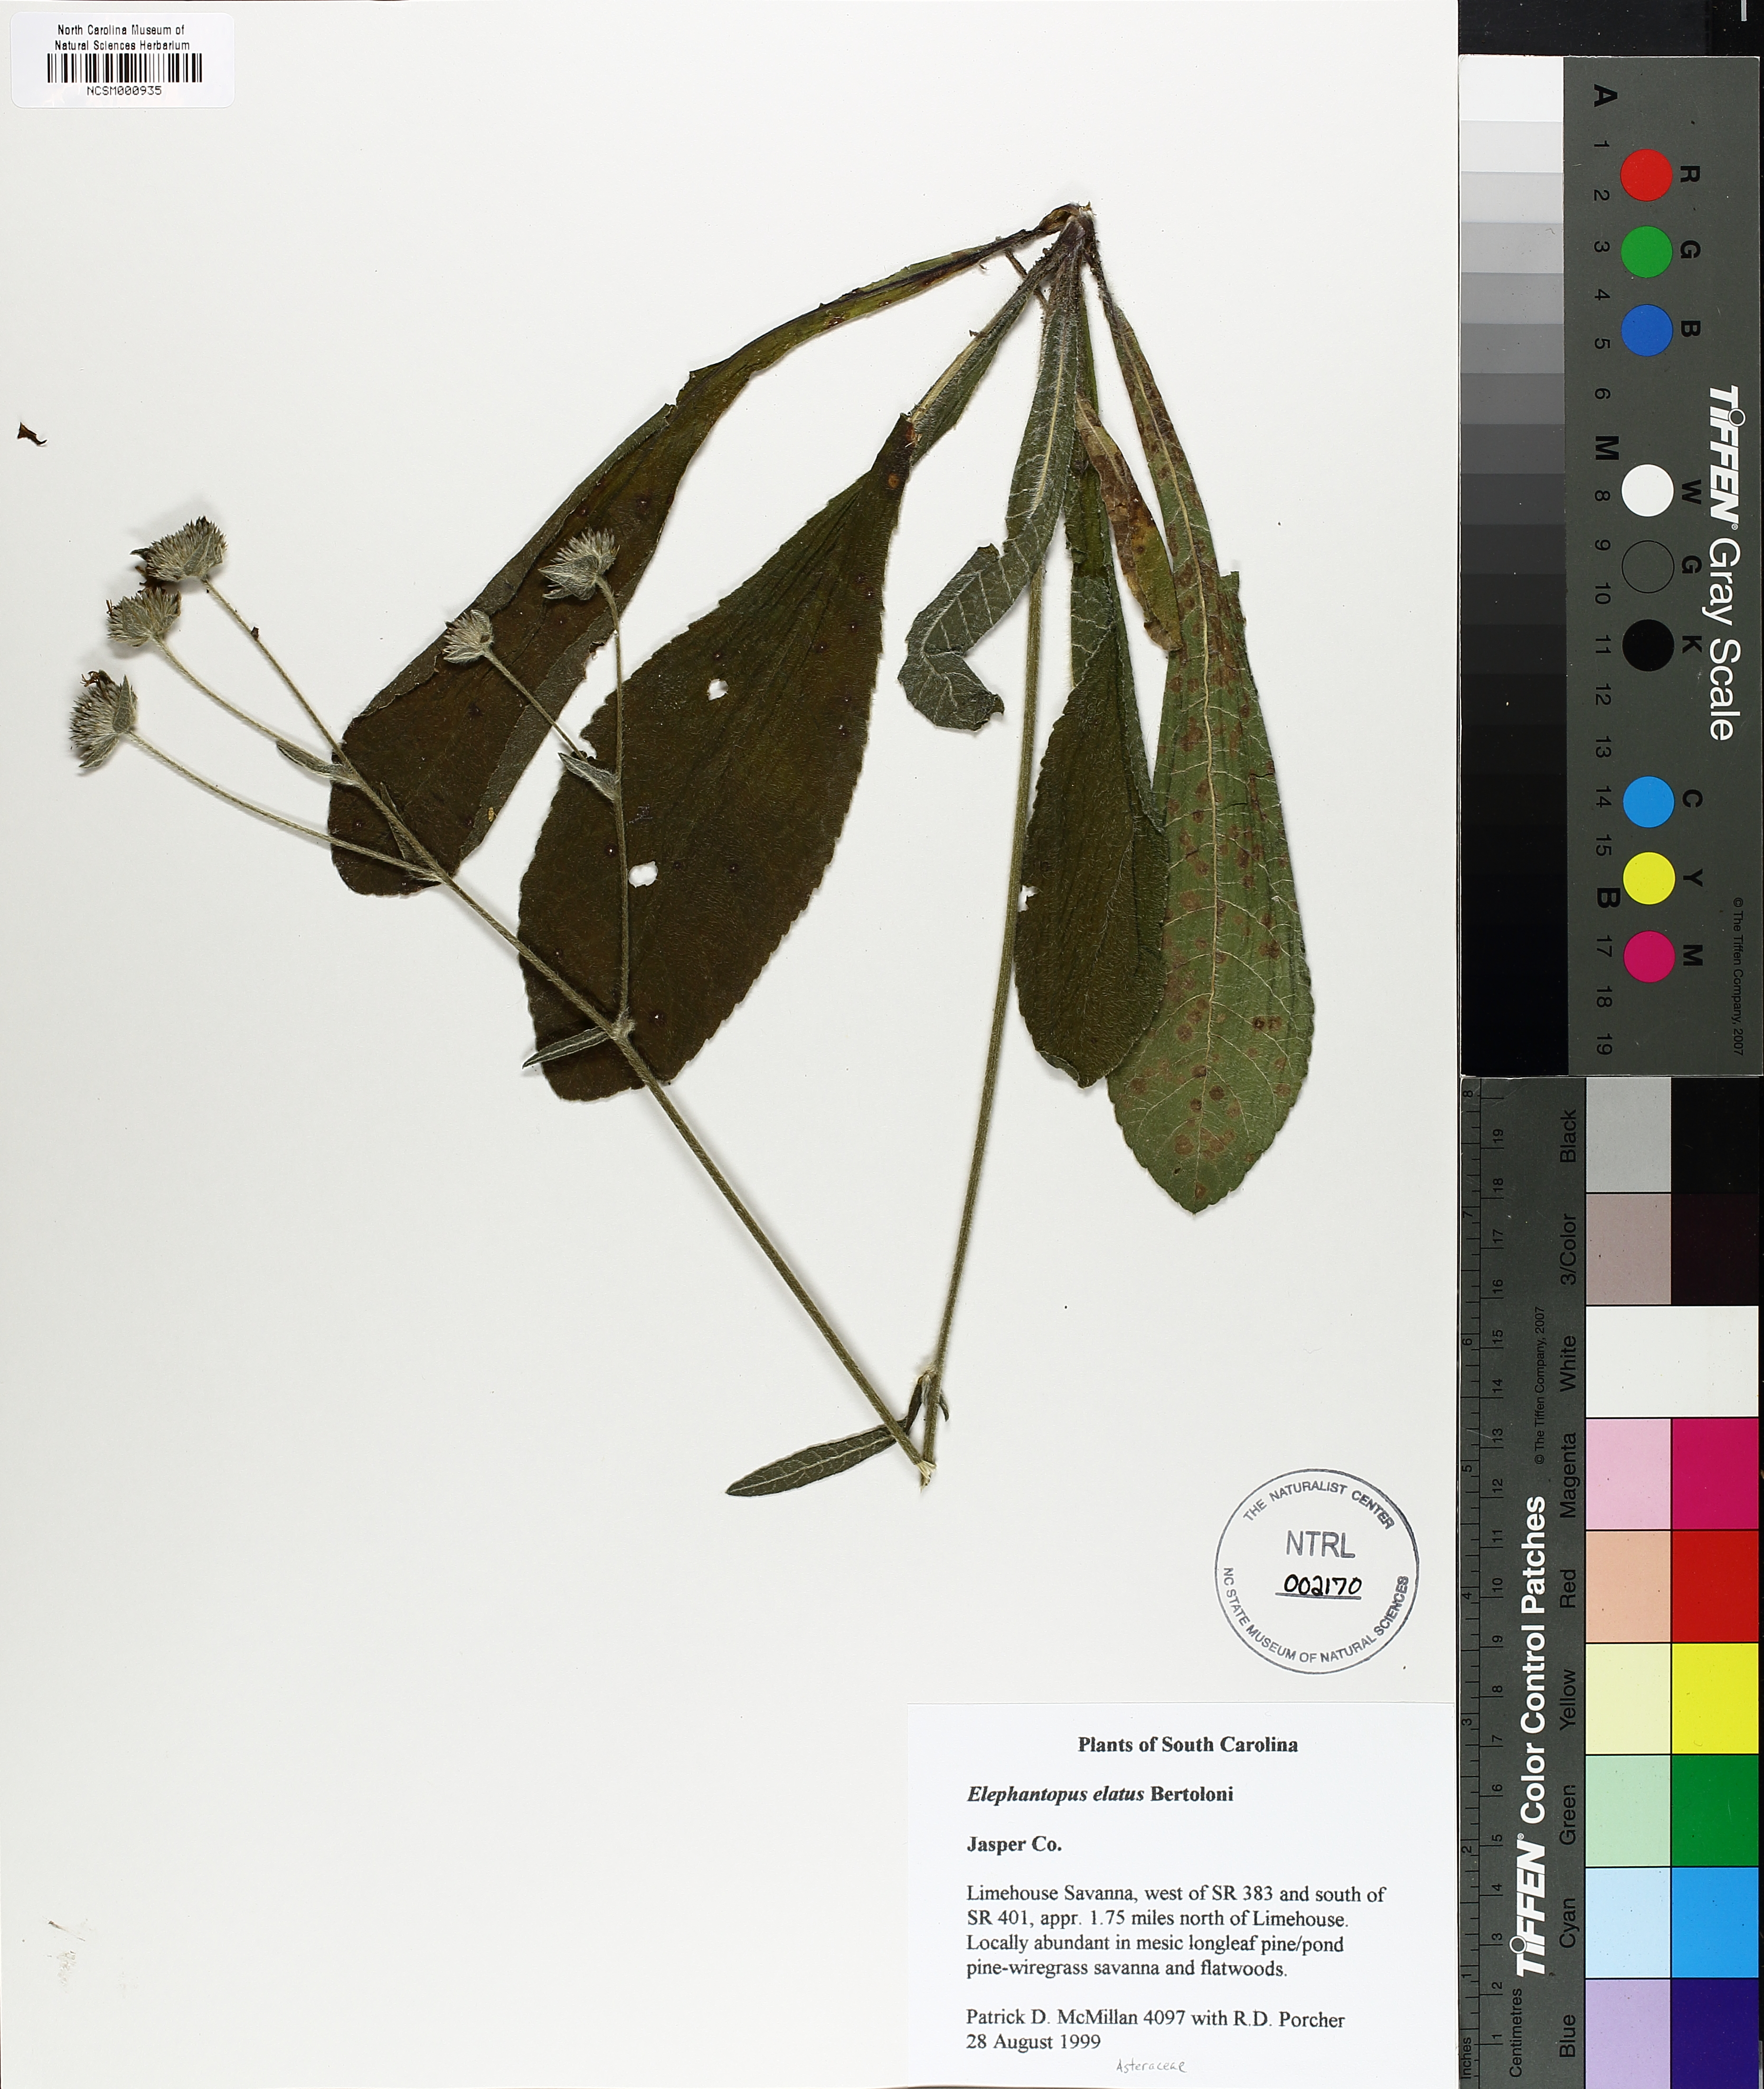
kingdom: Plantae
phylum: Tracheophyta
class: Magnoliopsida
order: Asterales
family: Asteraceae
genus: Elephantopus
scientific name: Elephantopus elatus
